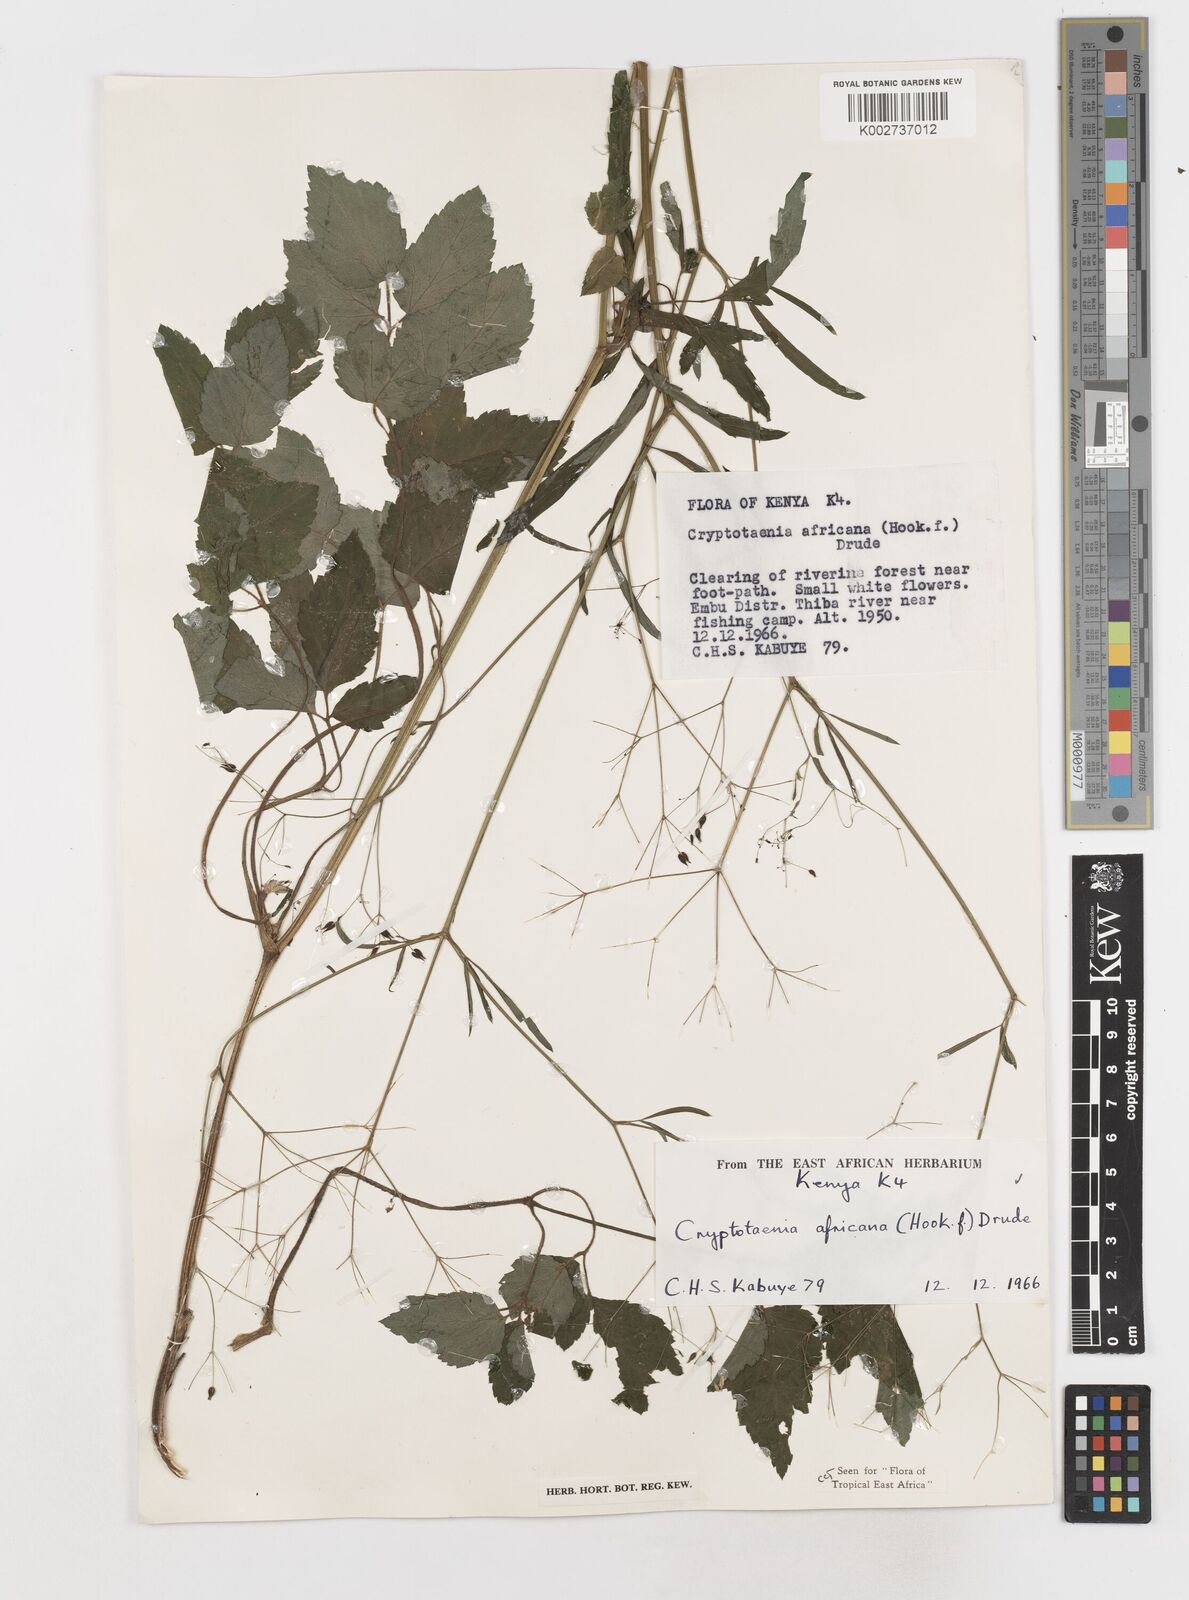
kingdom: Plantae
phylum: Tracheophyta
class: Magnoliopsida
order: Apiales
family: Apiaceae
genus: Cryptotaenia
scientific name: Cryptotaenia africana
